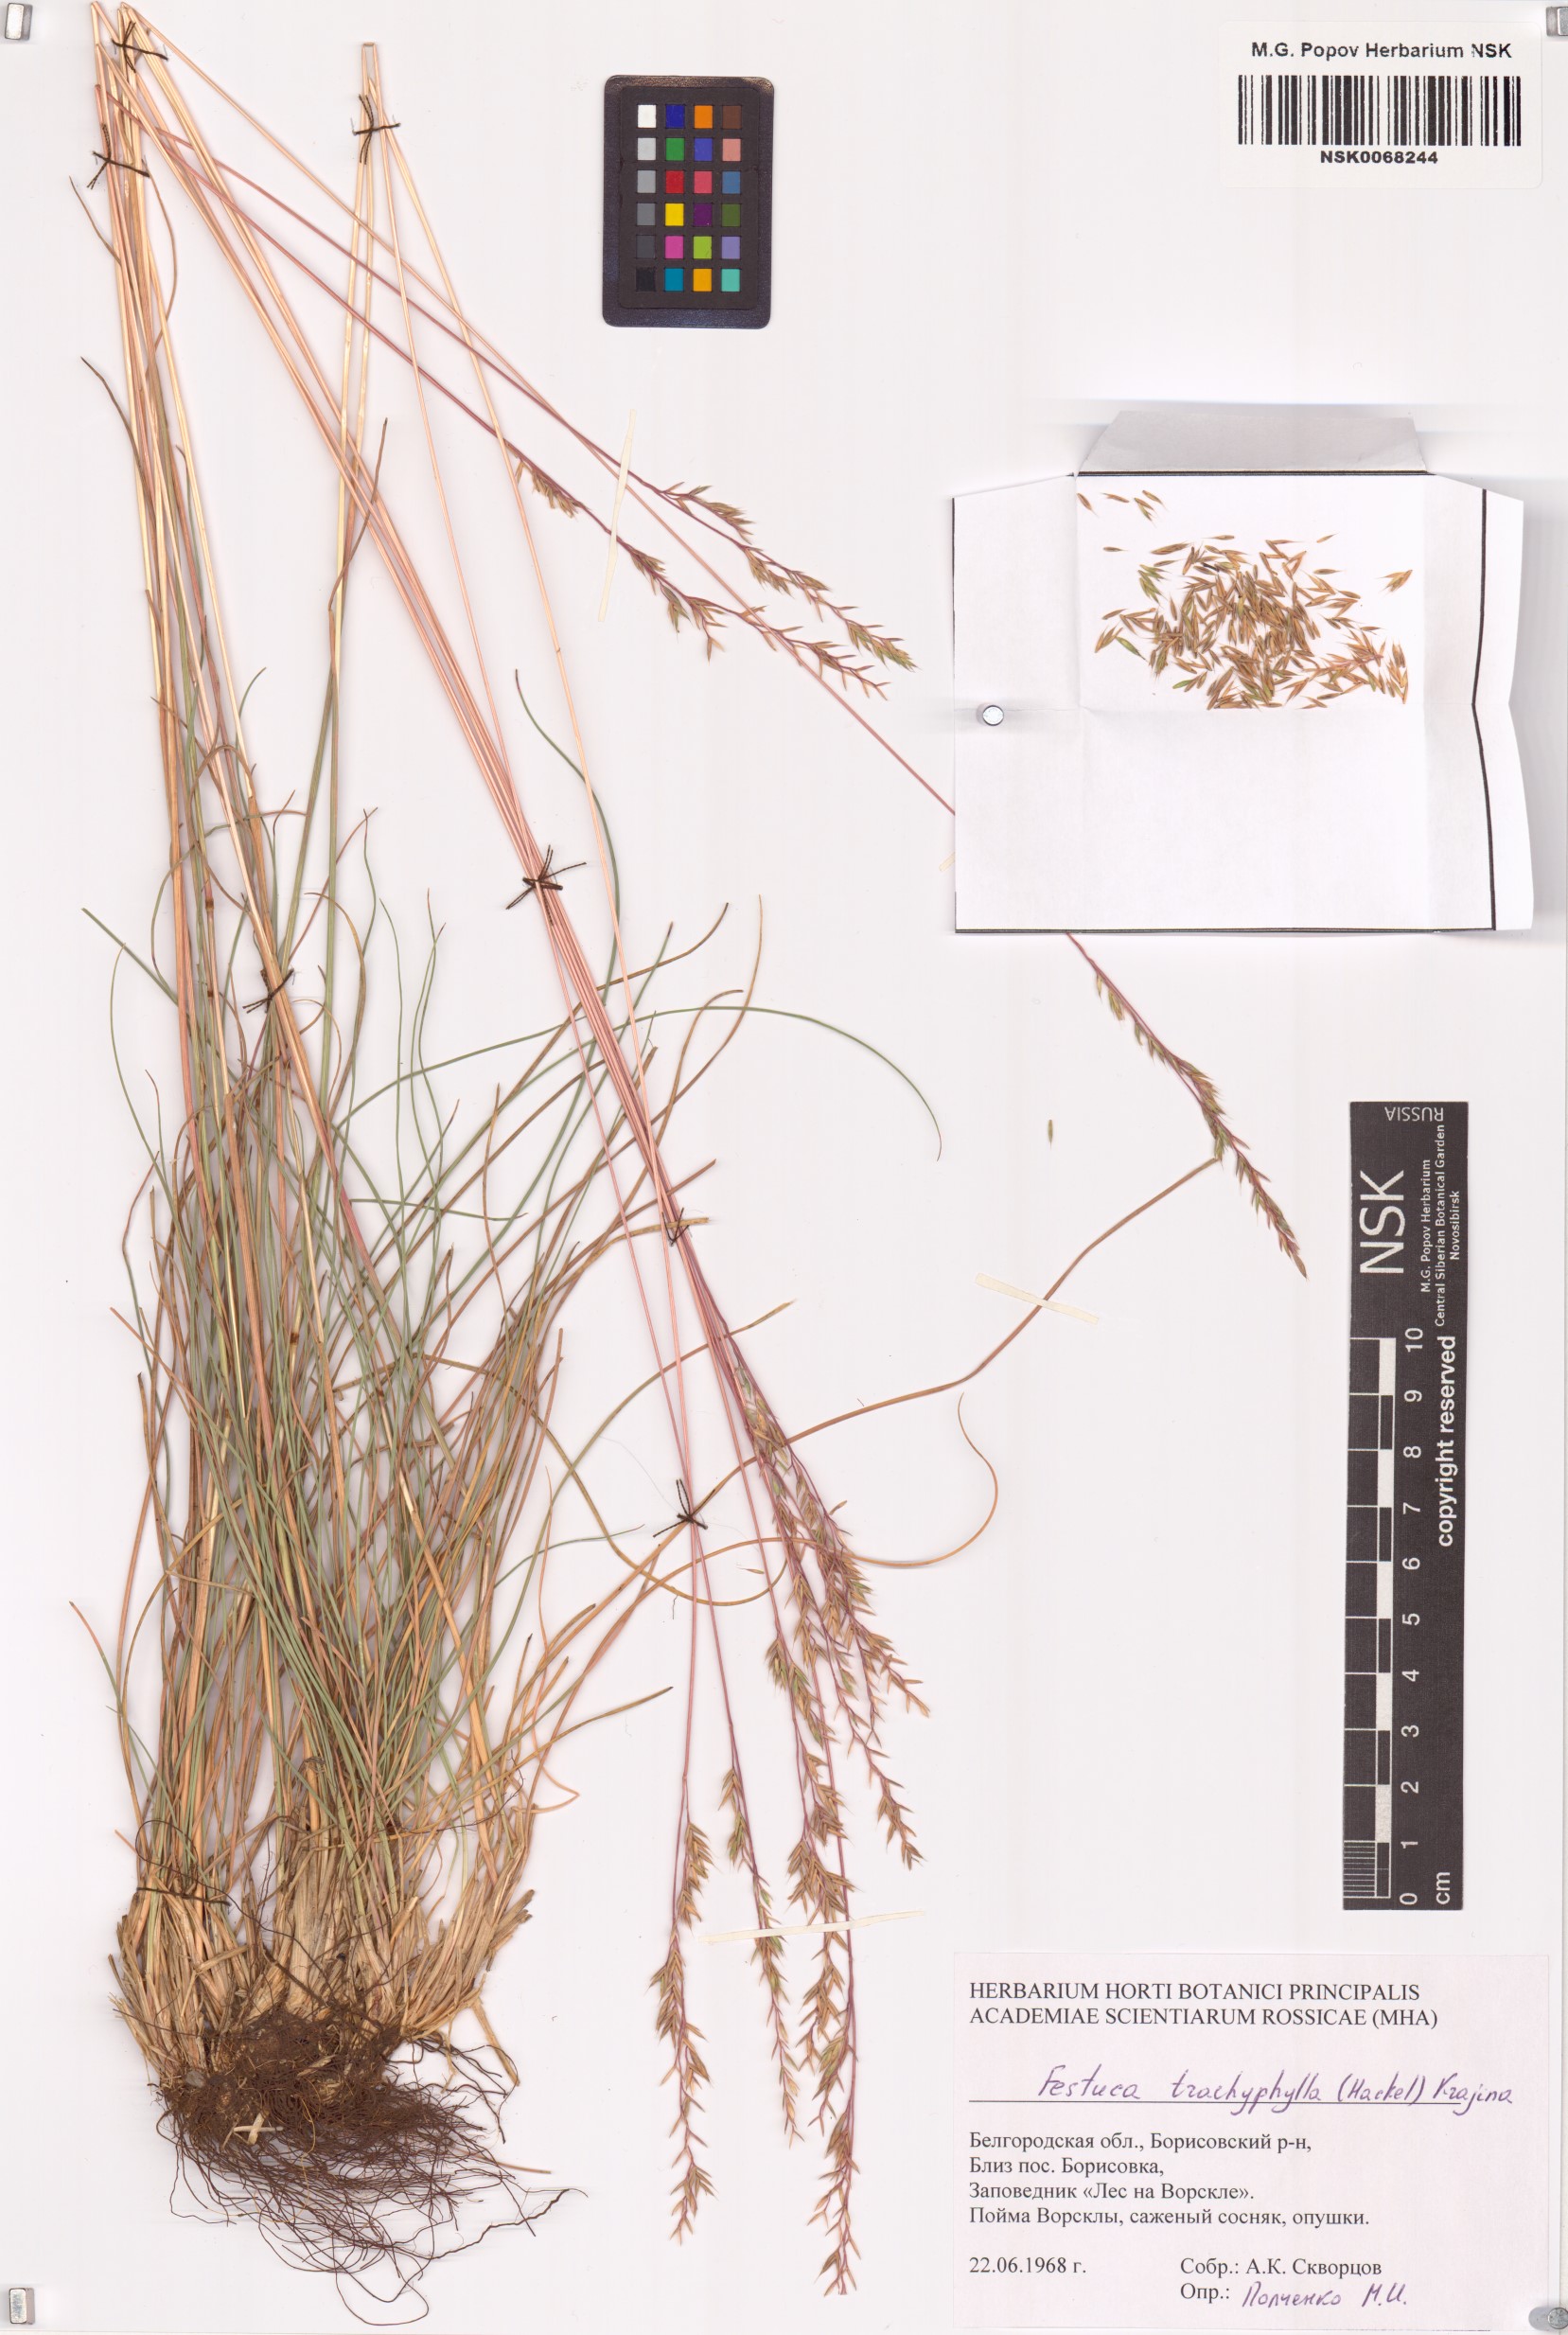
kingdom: Plantae
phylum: Tracheophyta
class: Liliopsida
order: Poales
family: Poaceae
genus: Festuca
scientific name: Festuca trachyphylla
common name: Hard fescue
